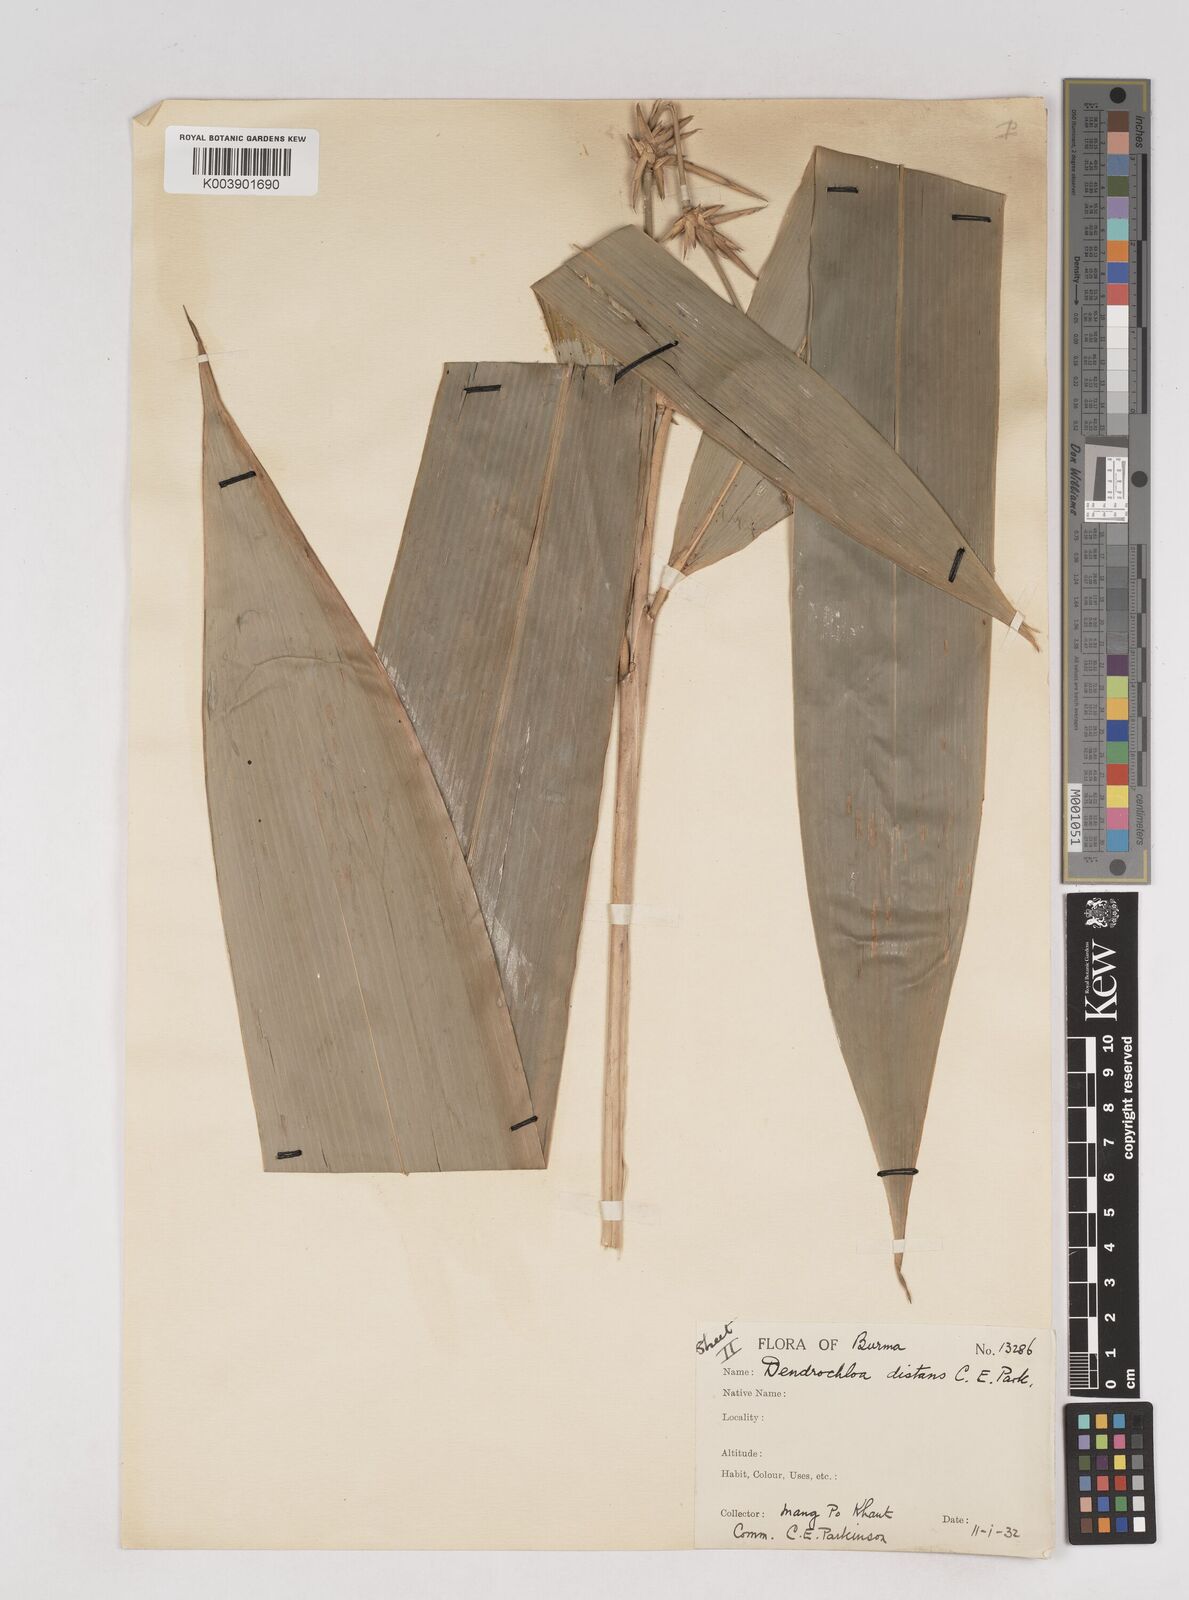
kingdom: Plantae
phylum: Tracheophyta
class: Liliopsida
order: Poales
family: Poaceae
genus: Schizostachyum
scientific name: Schizostachyum distans
